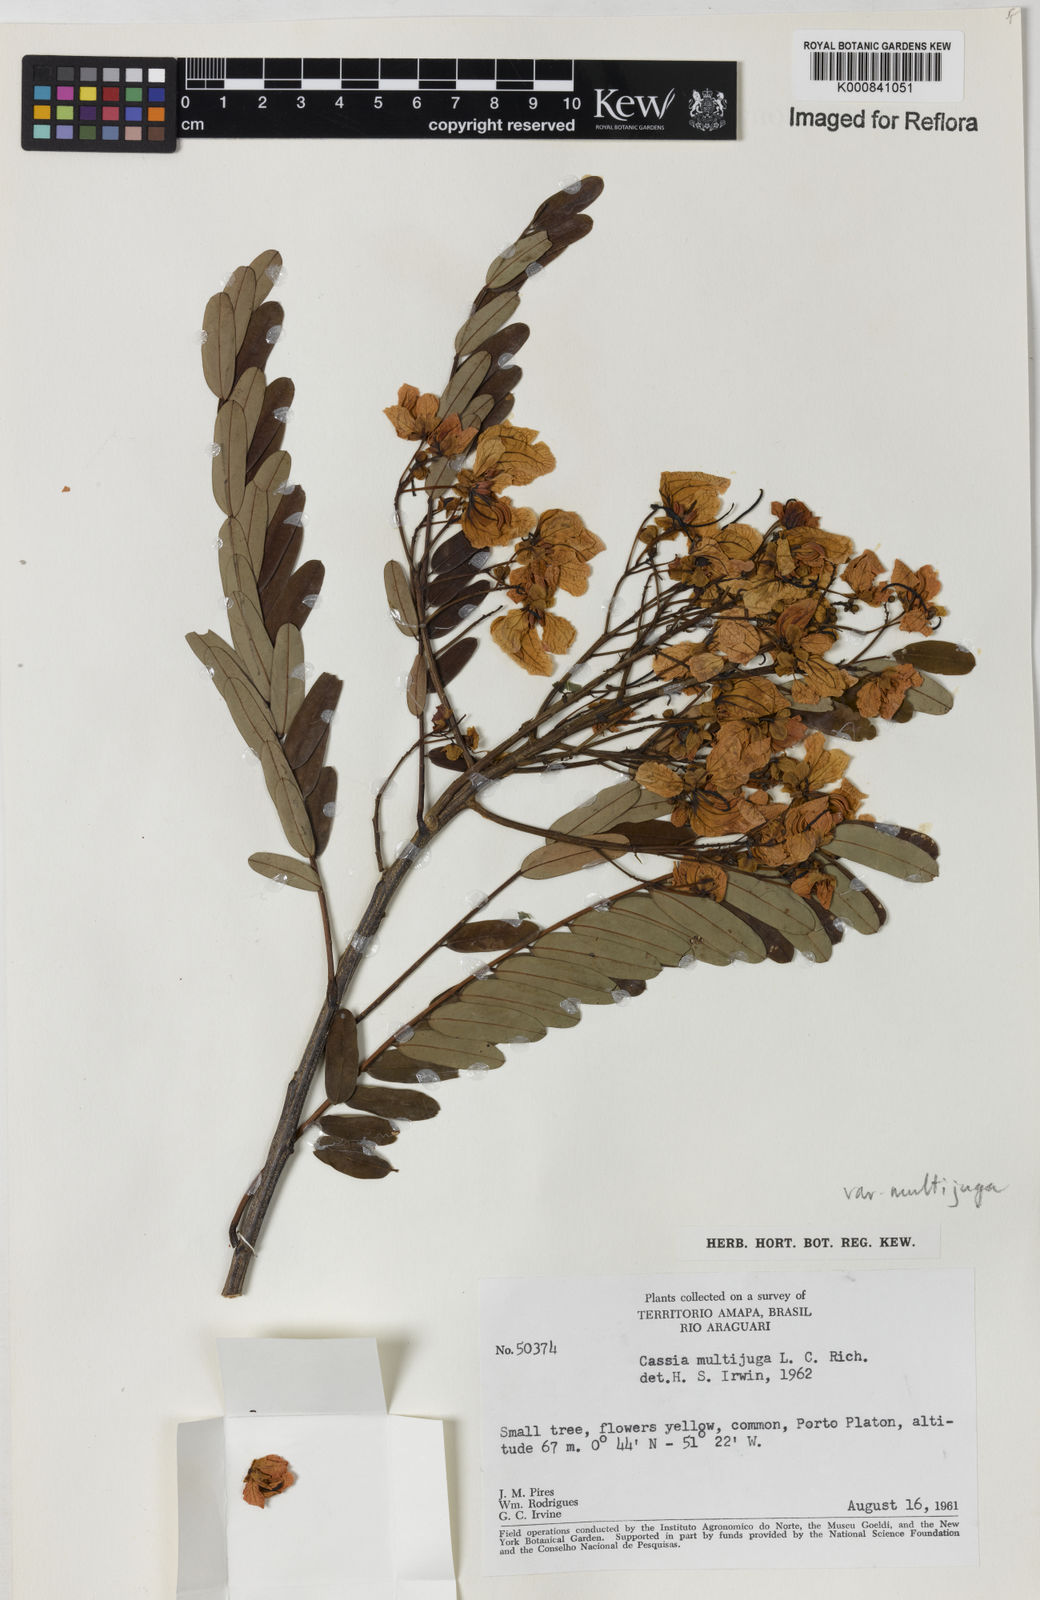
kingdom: Plantae
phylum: Tracheophyta
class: Magnoliopsida
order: Fabales
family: Fabaceae
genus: Senna
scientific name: Senna multijuga
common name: False sicklepod
